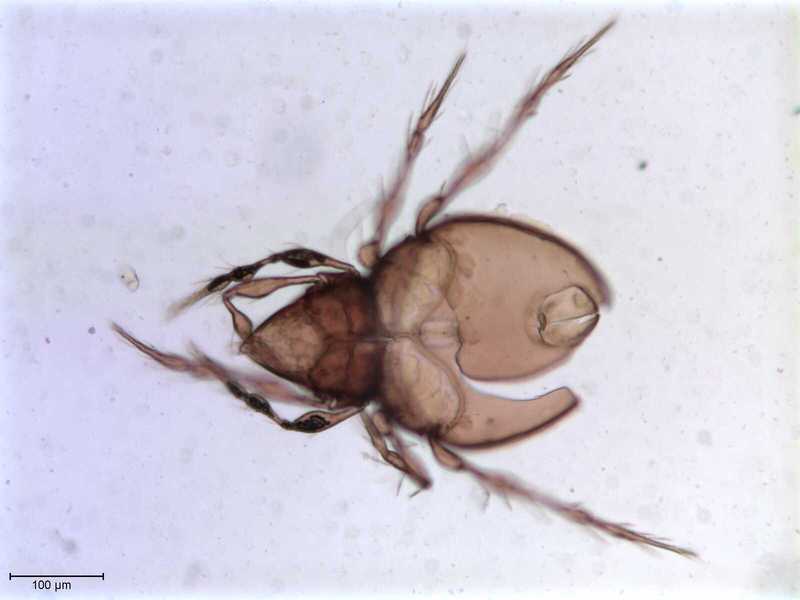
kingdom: Animalia
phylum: Arthropoda
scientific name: Arthropoda
